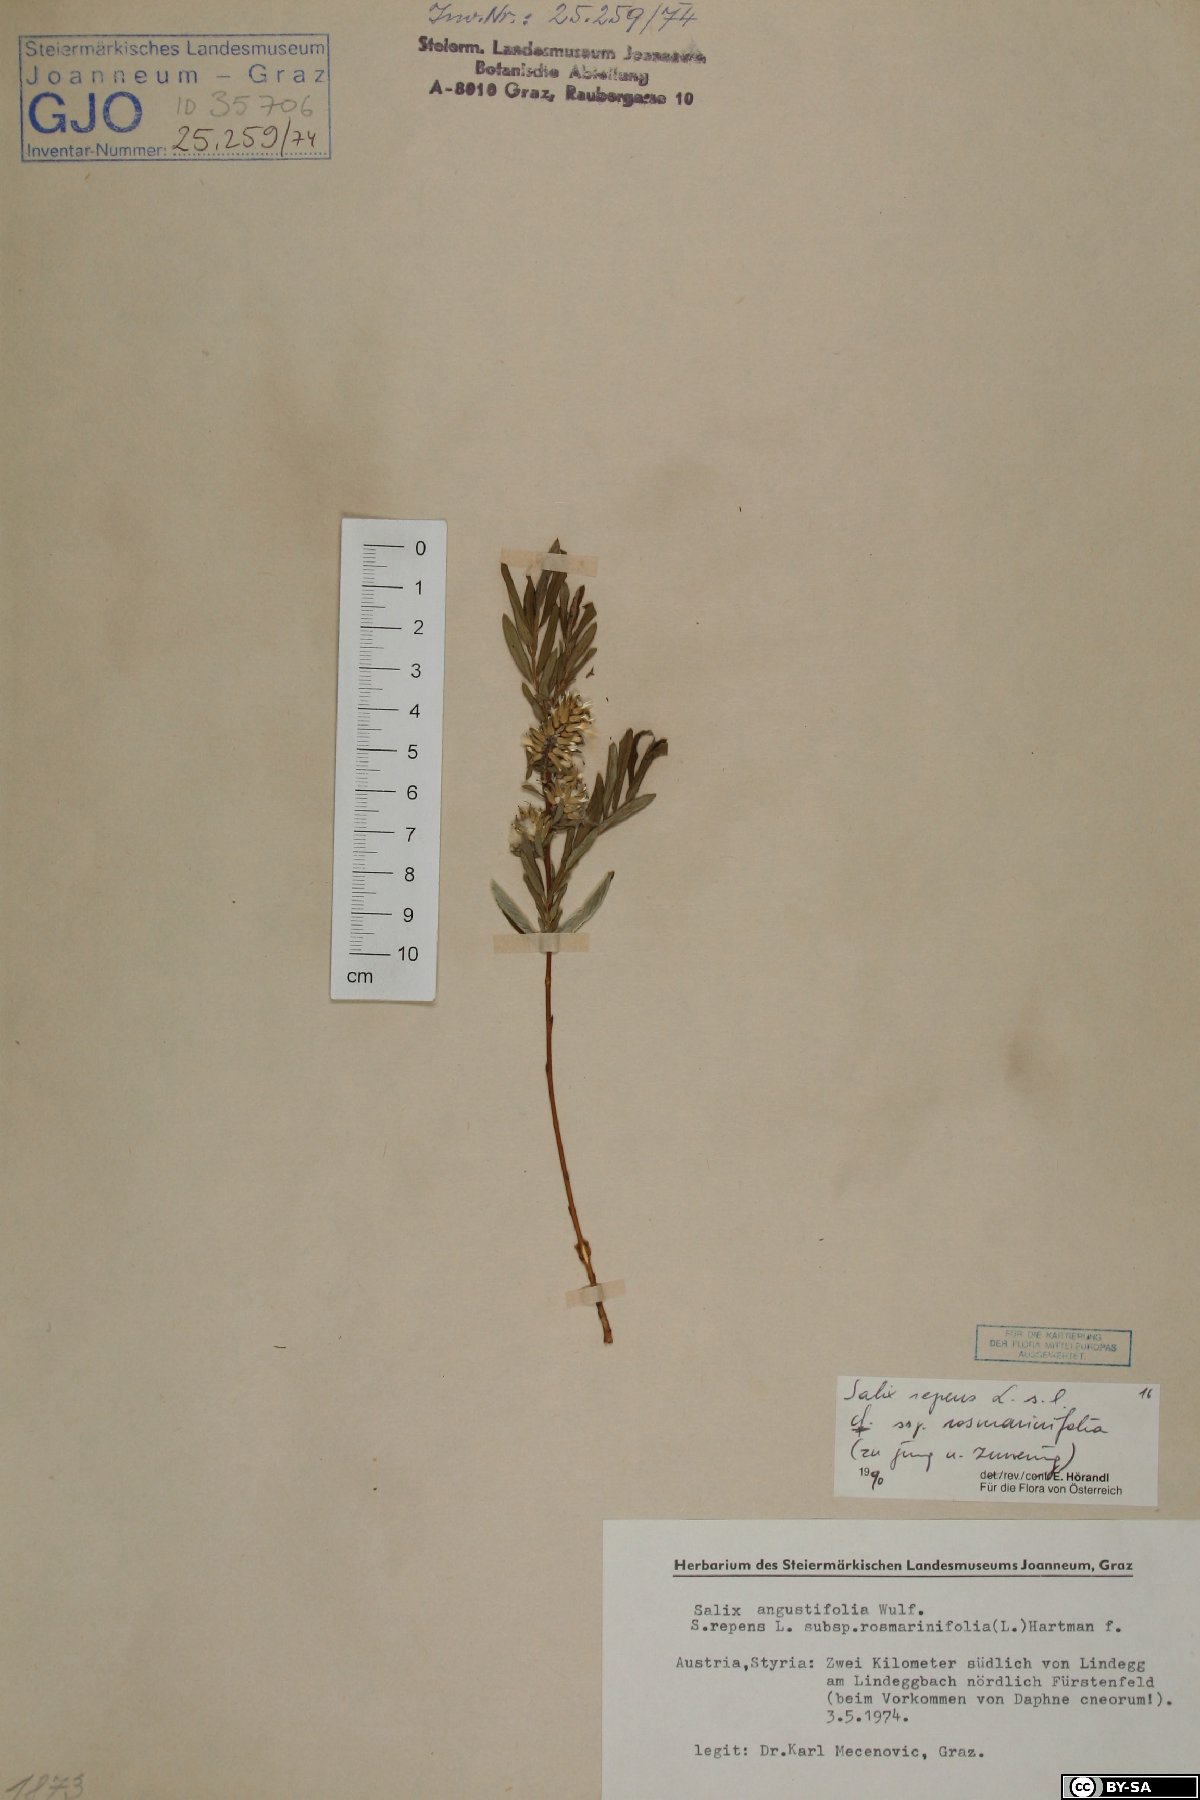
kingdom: Plantae
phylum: Tracheophyta
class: Magnoliopsida
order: Malpighiales
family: Salicaceae
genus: Salix
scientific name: Salix repens
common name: Creeping willow
